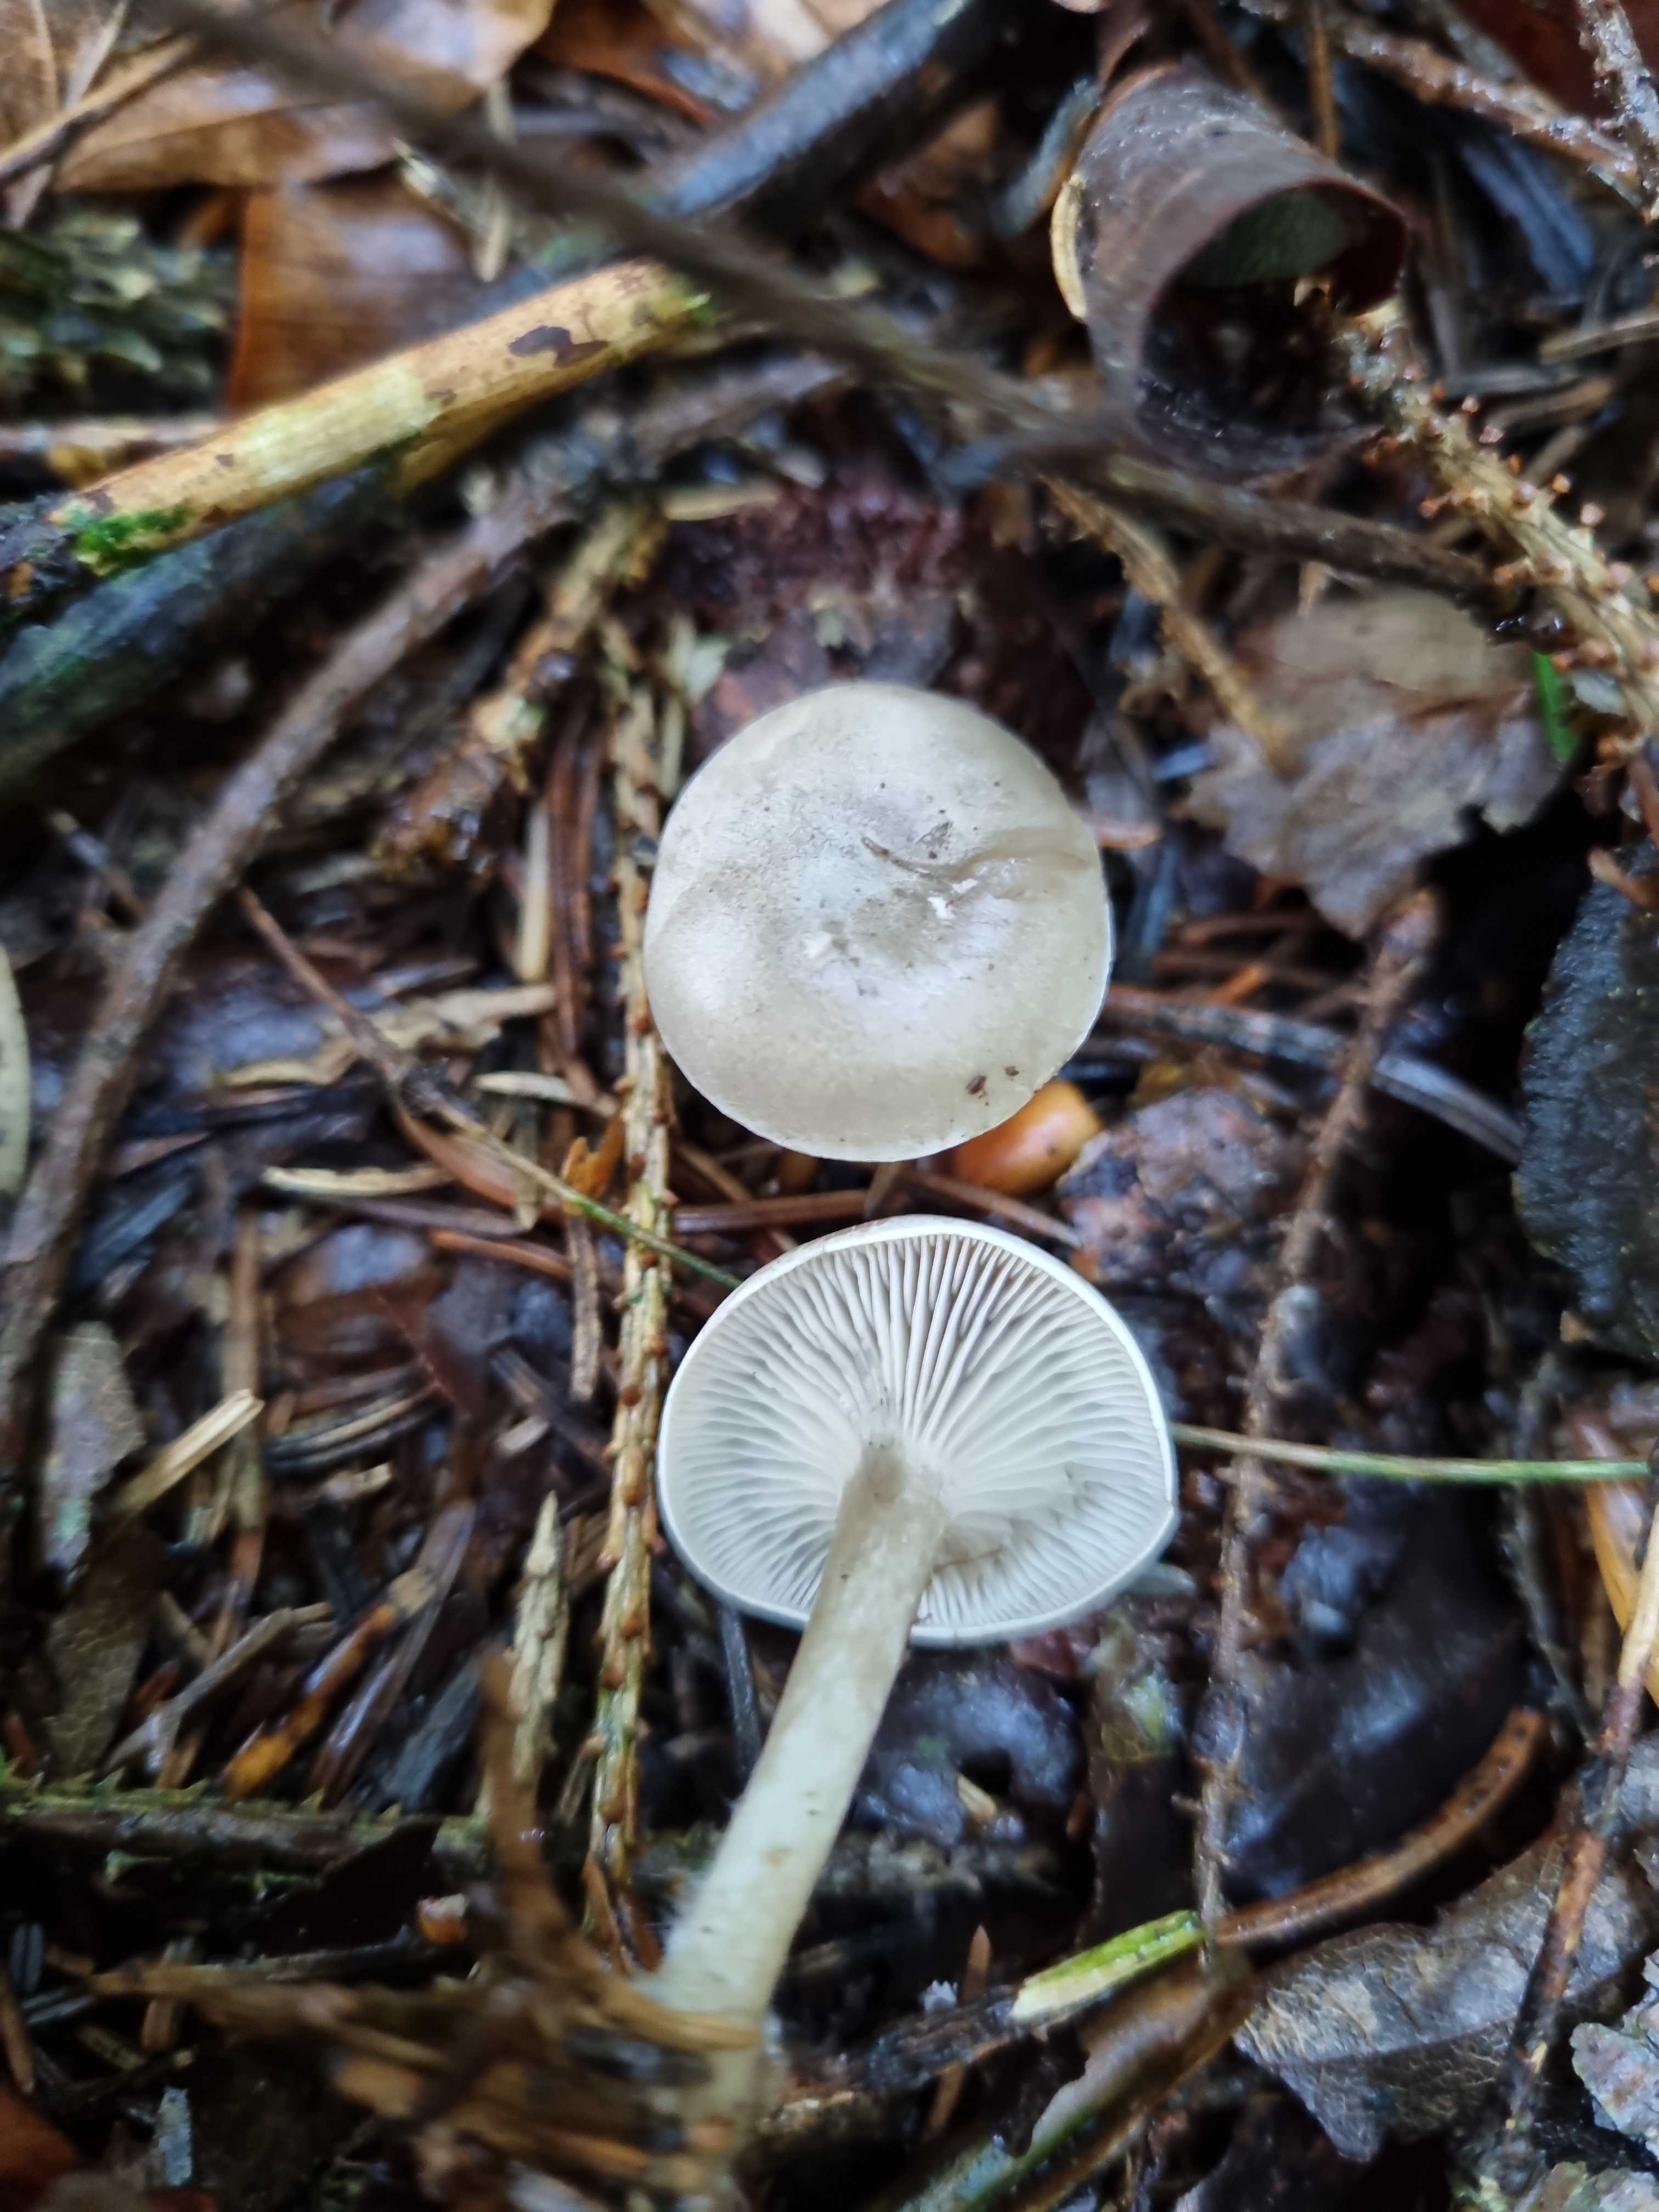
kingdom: Fungi
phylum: Basidiomycota
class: Agaricomycetes
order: Agaricales
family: Tricholomataceae
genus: Clitocybe
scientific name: Clitocybe
